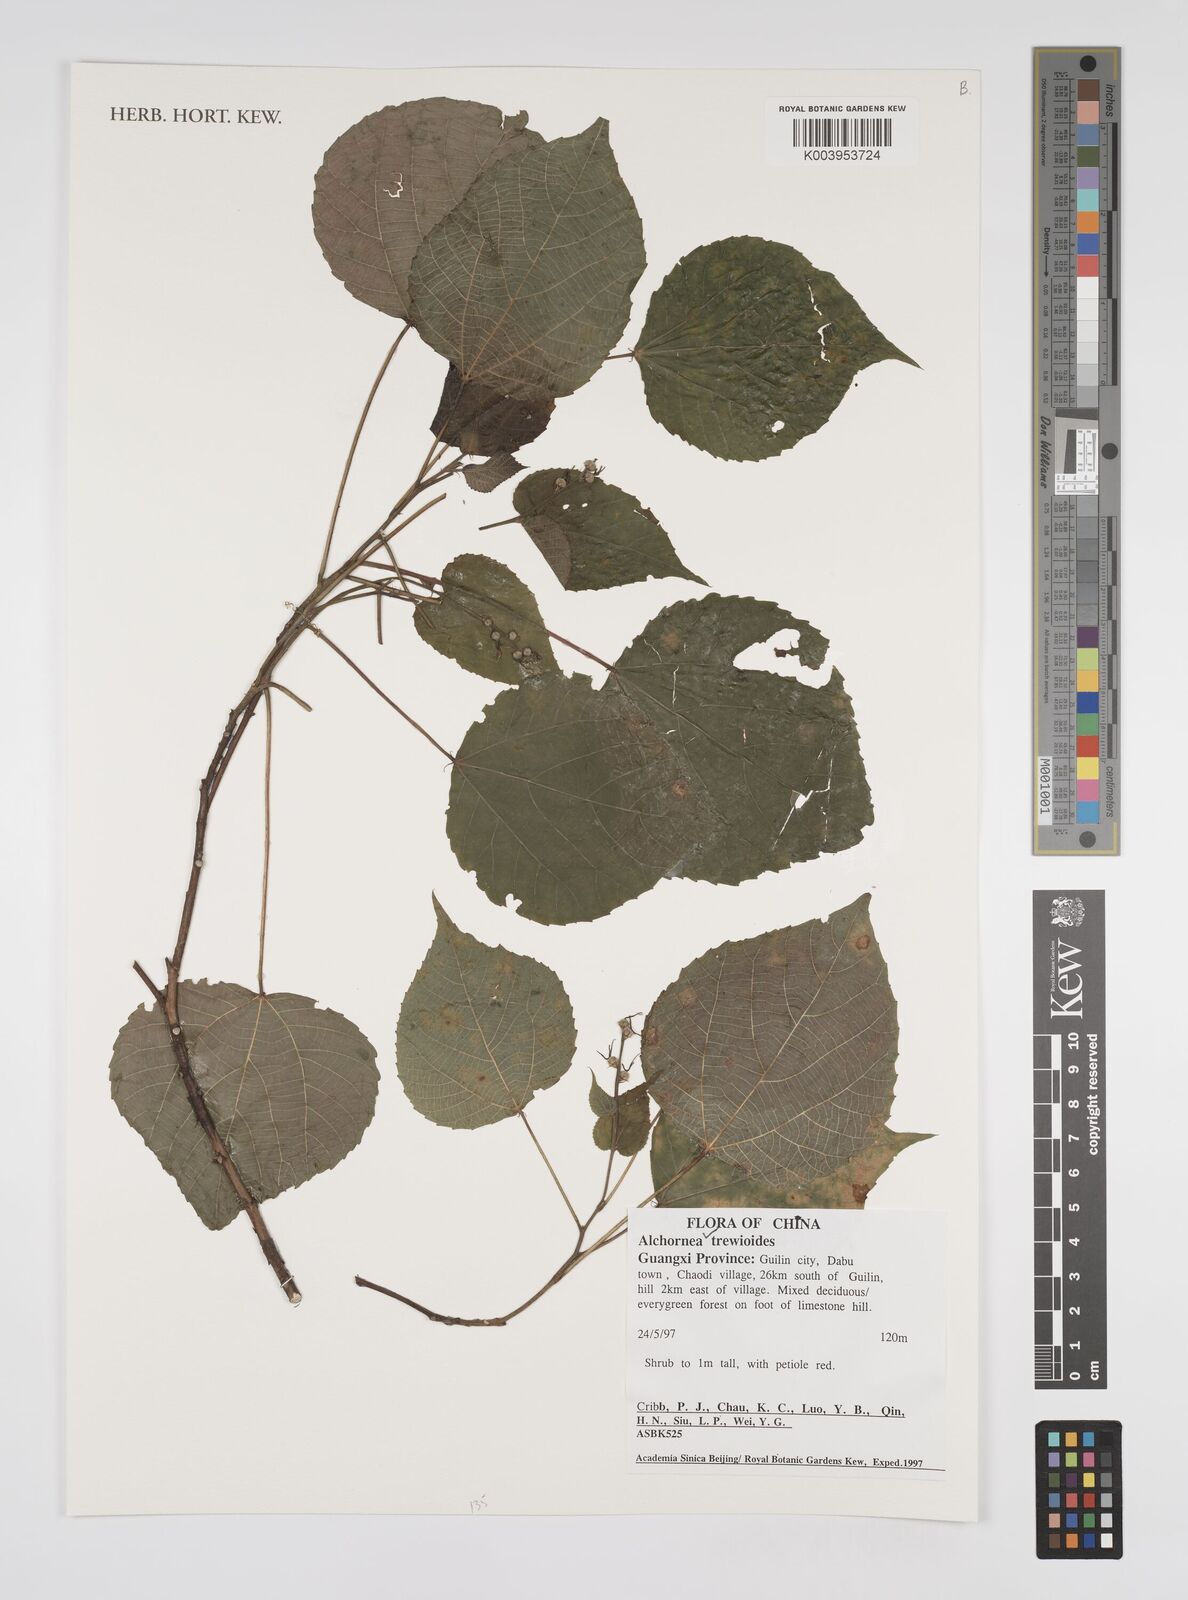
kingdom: Plantae
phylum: Tracheophyta
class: Magnoliopsida
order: Malpighiales
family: Euphorbiaceae
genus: Alchornea
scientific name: Alchornea trewioides
